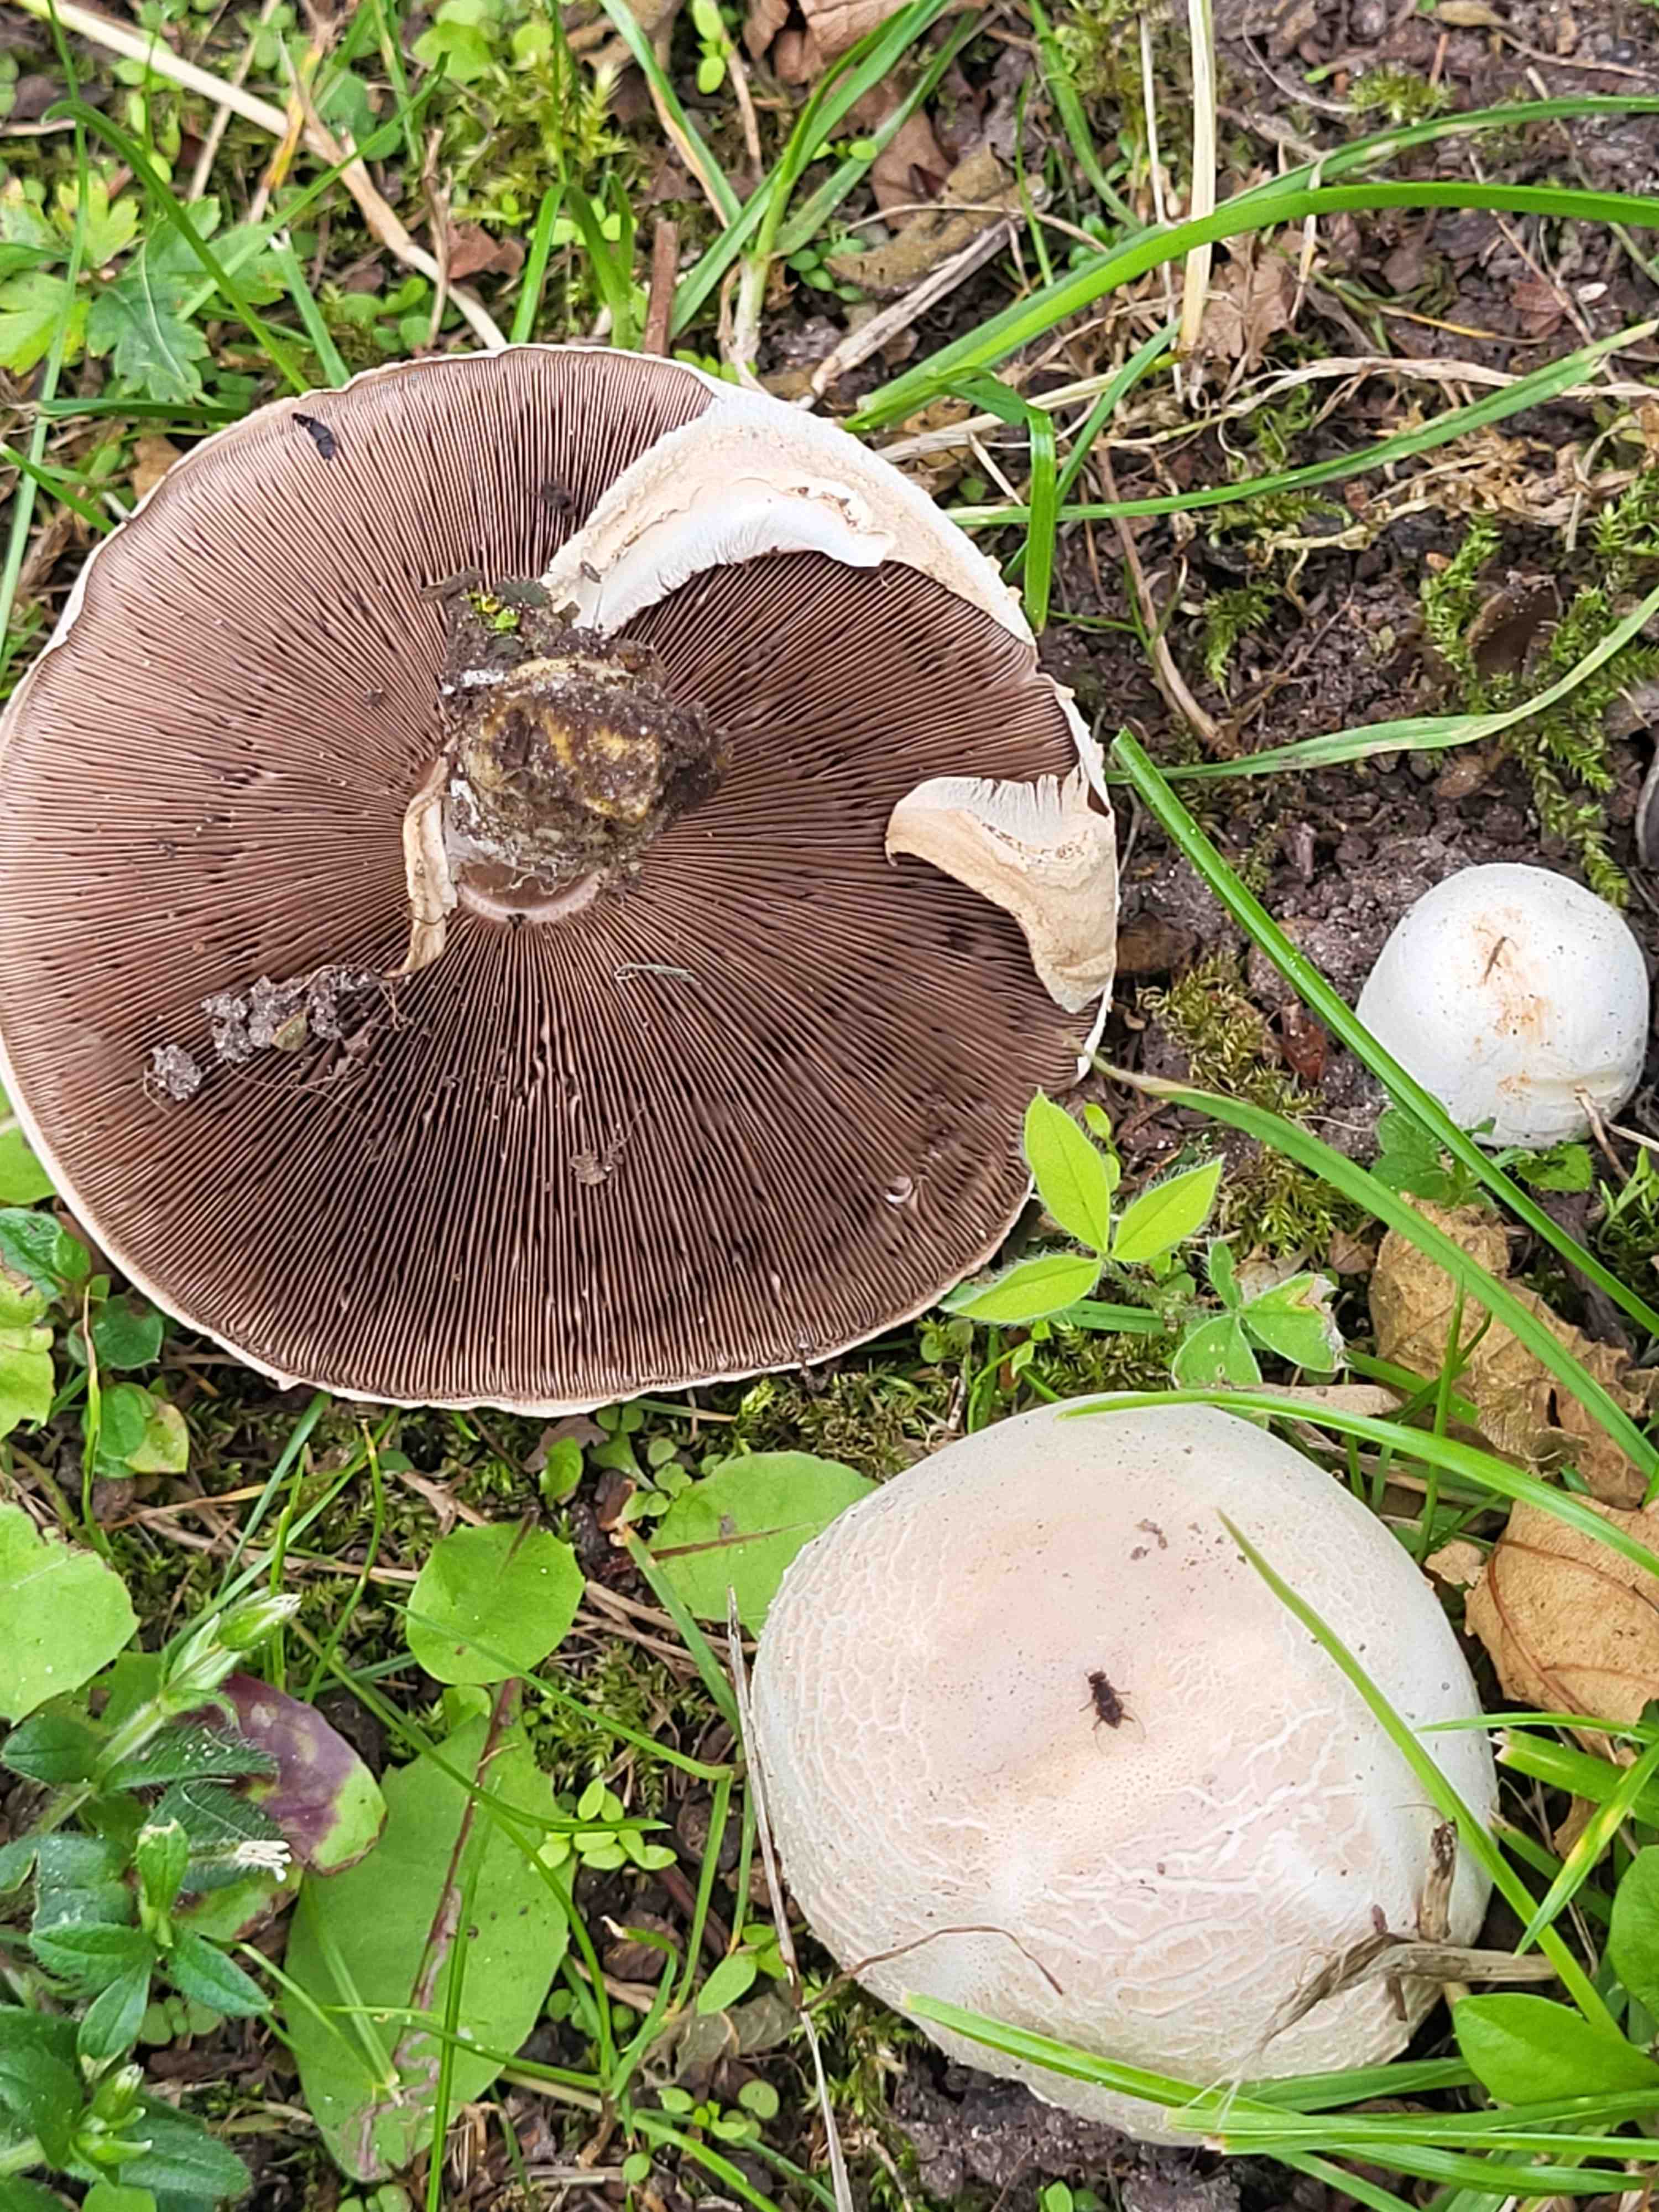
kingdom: Fungi
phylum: Basidiomycota
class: Agaricomycetes
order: Agaricales
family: Agaricaceae
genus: Agaricus
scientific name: Agaricus xanthodermus
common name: karbol-champignon
